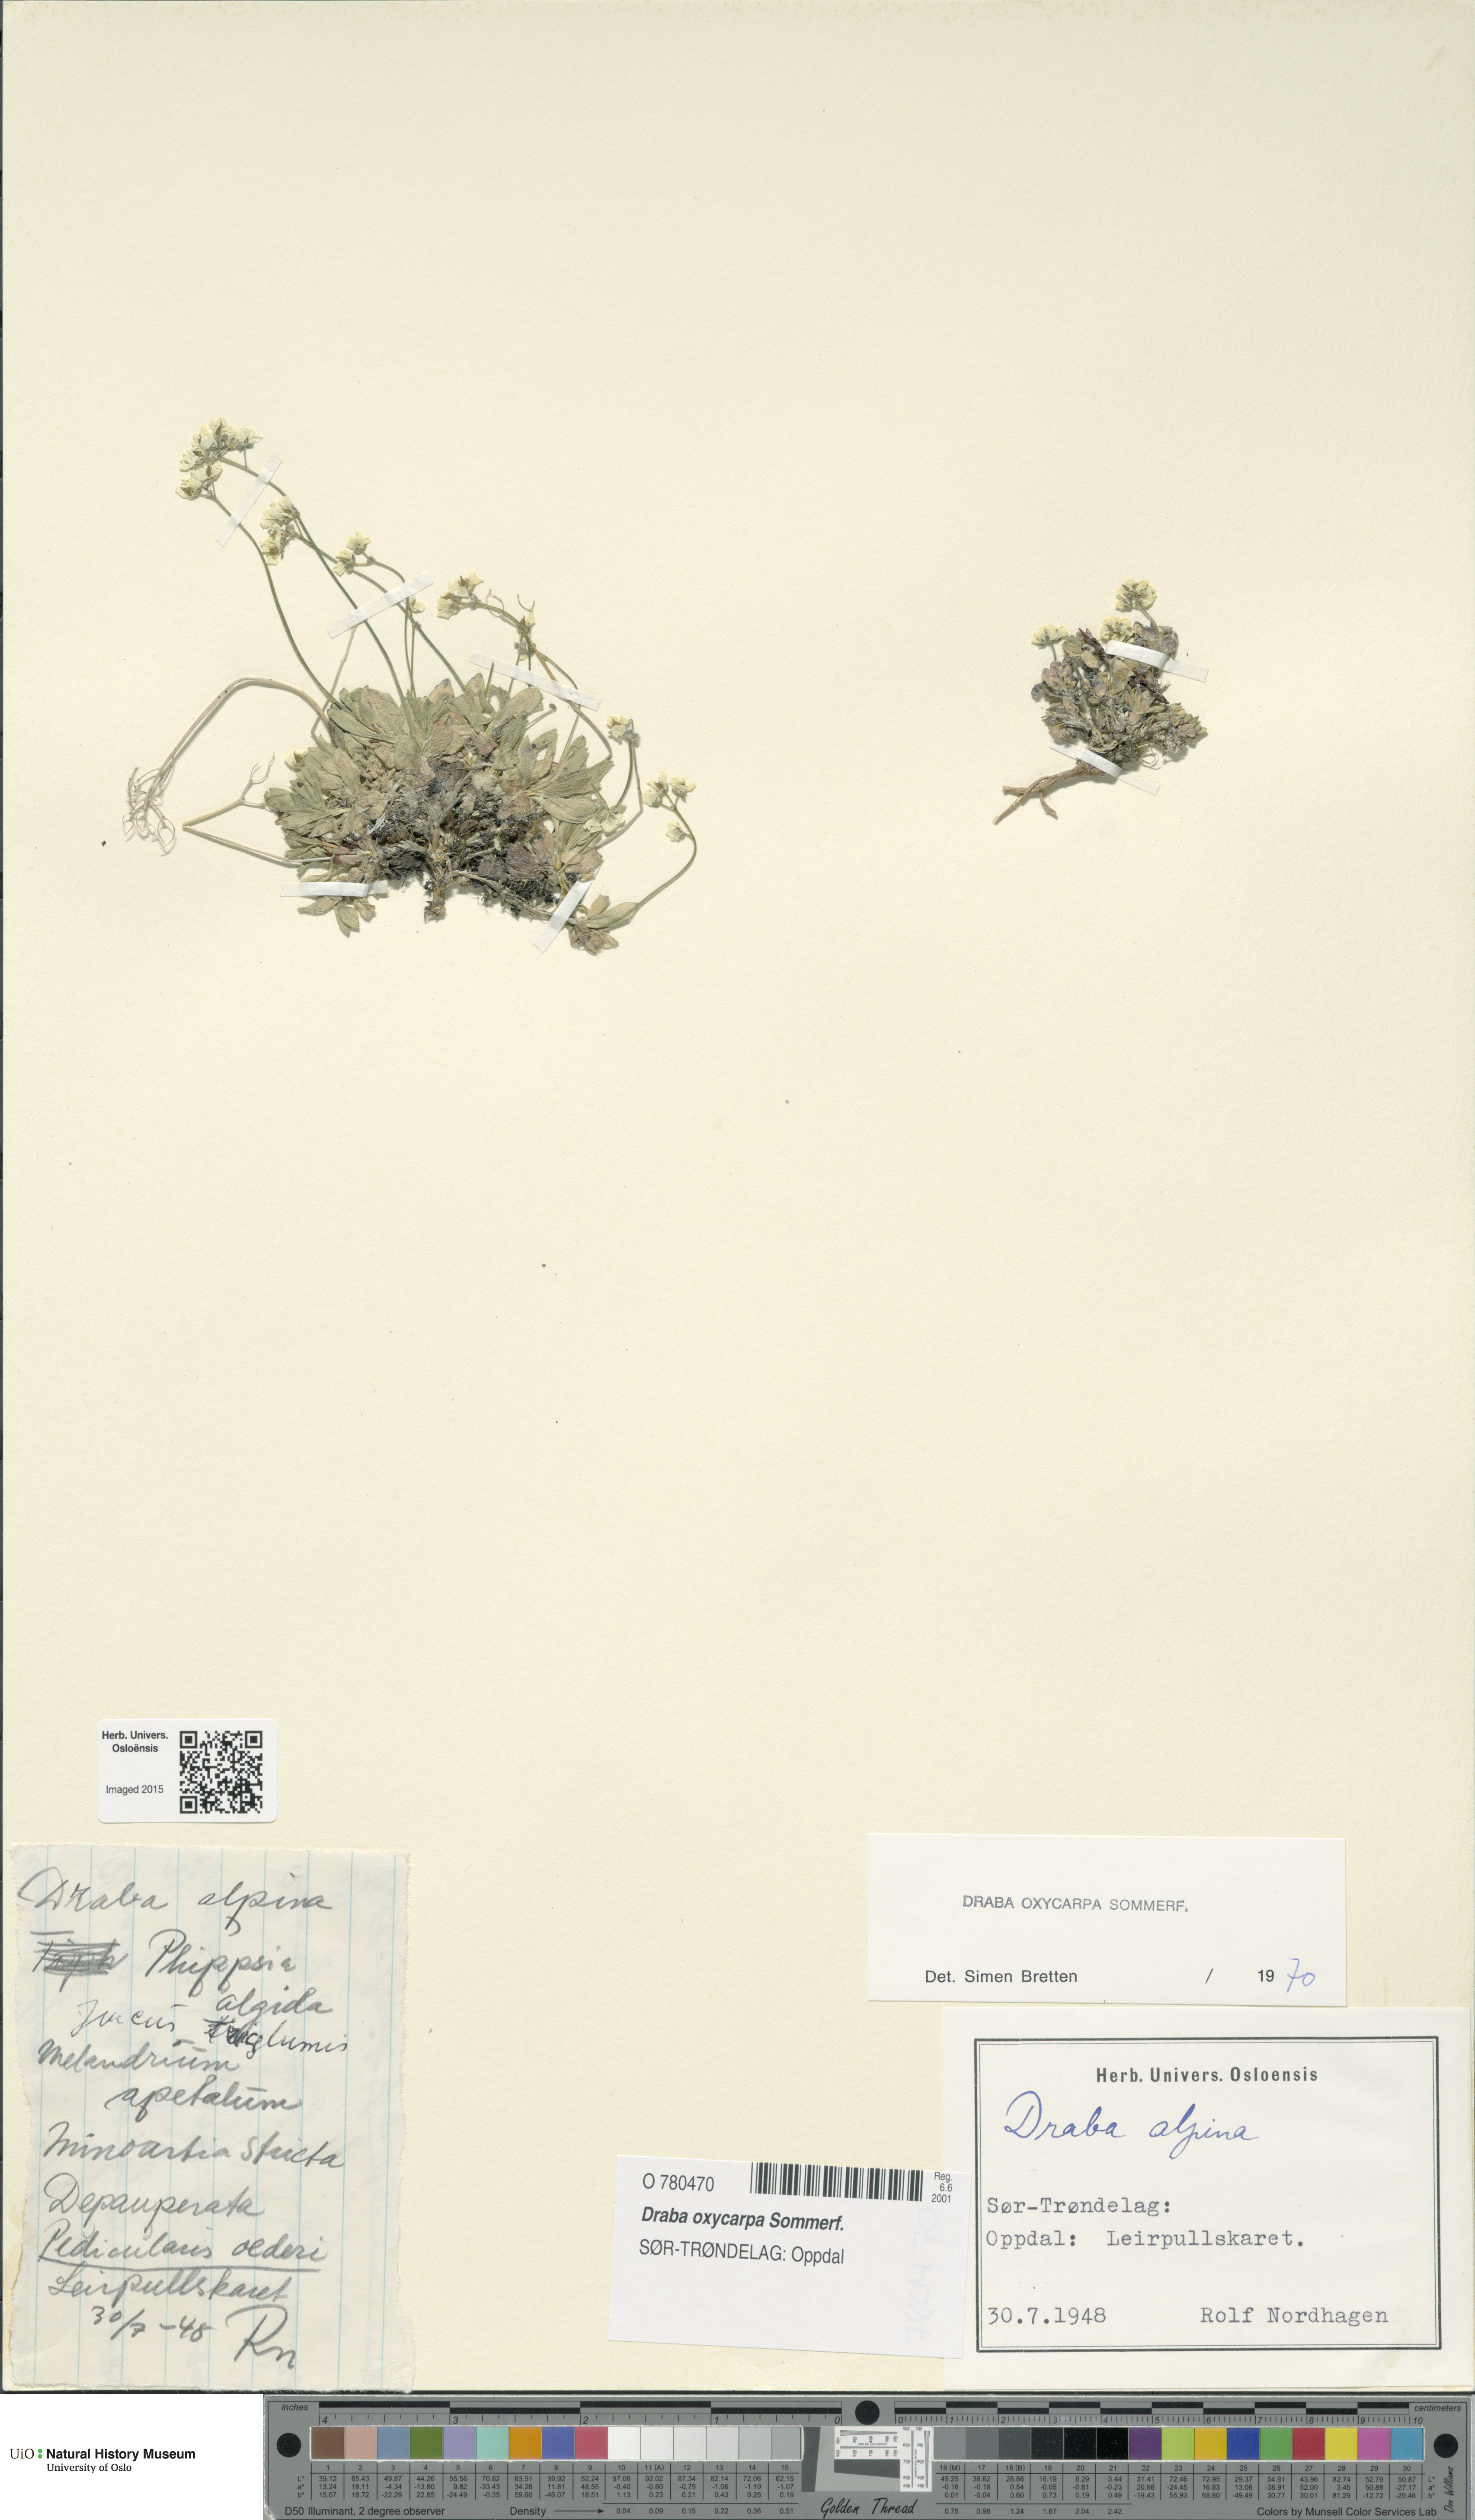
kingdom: Plantae
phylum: Tracheophyta
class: Magnoliopsida
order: Brassicales
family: Brassicaceae
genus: Draba
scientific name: Draba oxycarpa
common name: Sharp-fruited whitlow-grass
